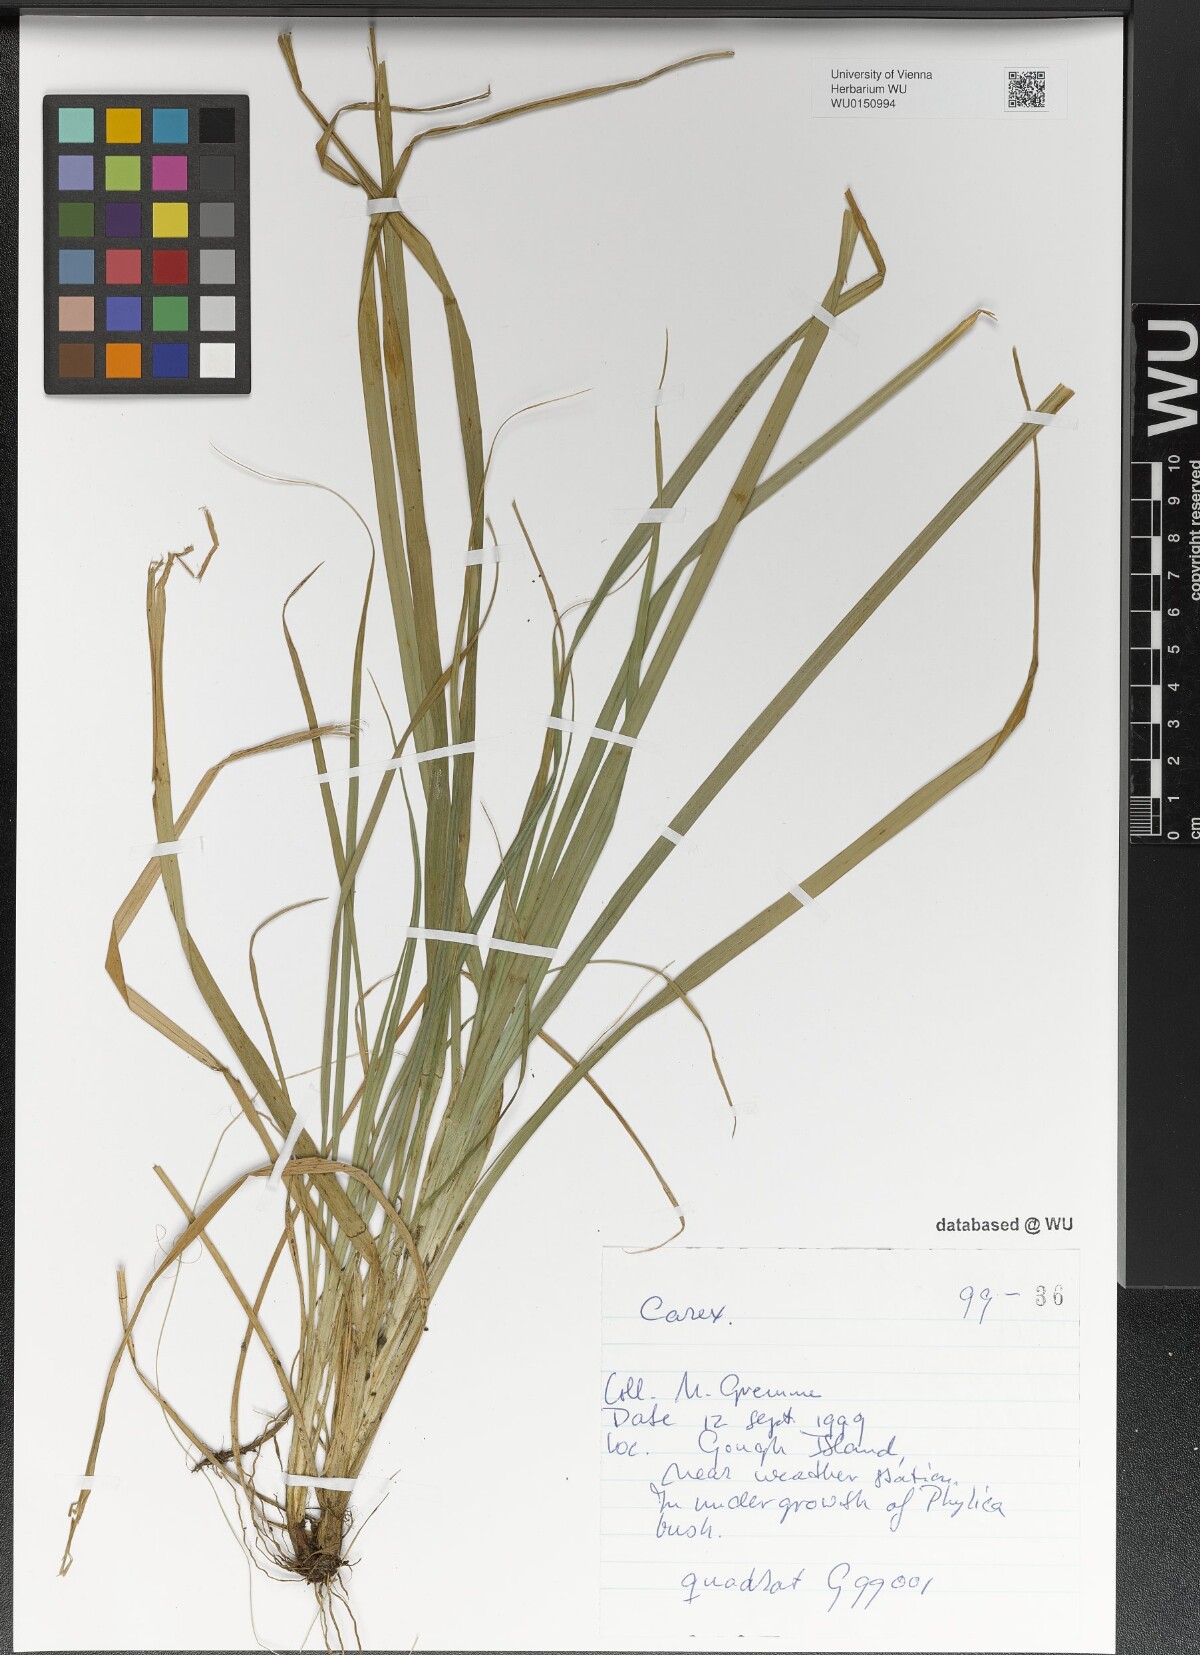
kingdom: Plantae
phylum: Tracheophyta
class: Liliopsida
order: Poales
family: Cyperaceae
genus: Carex
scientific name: Carex
